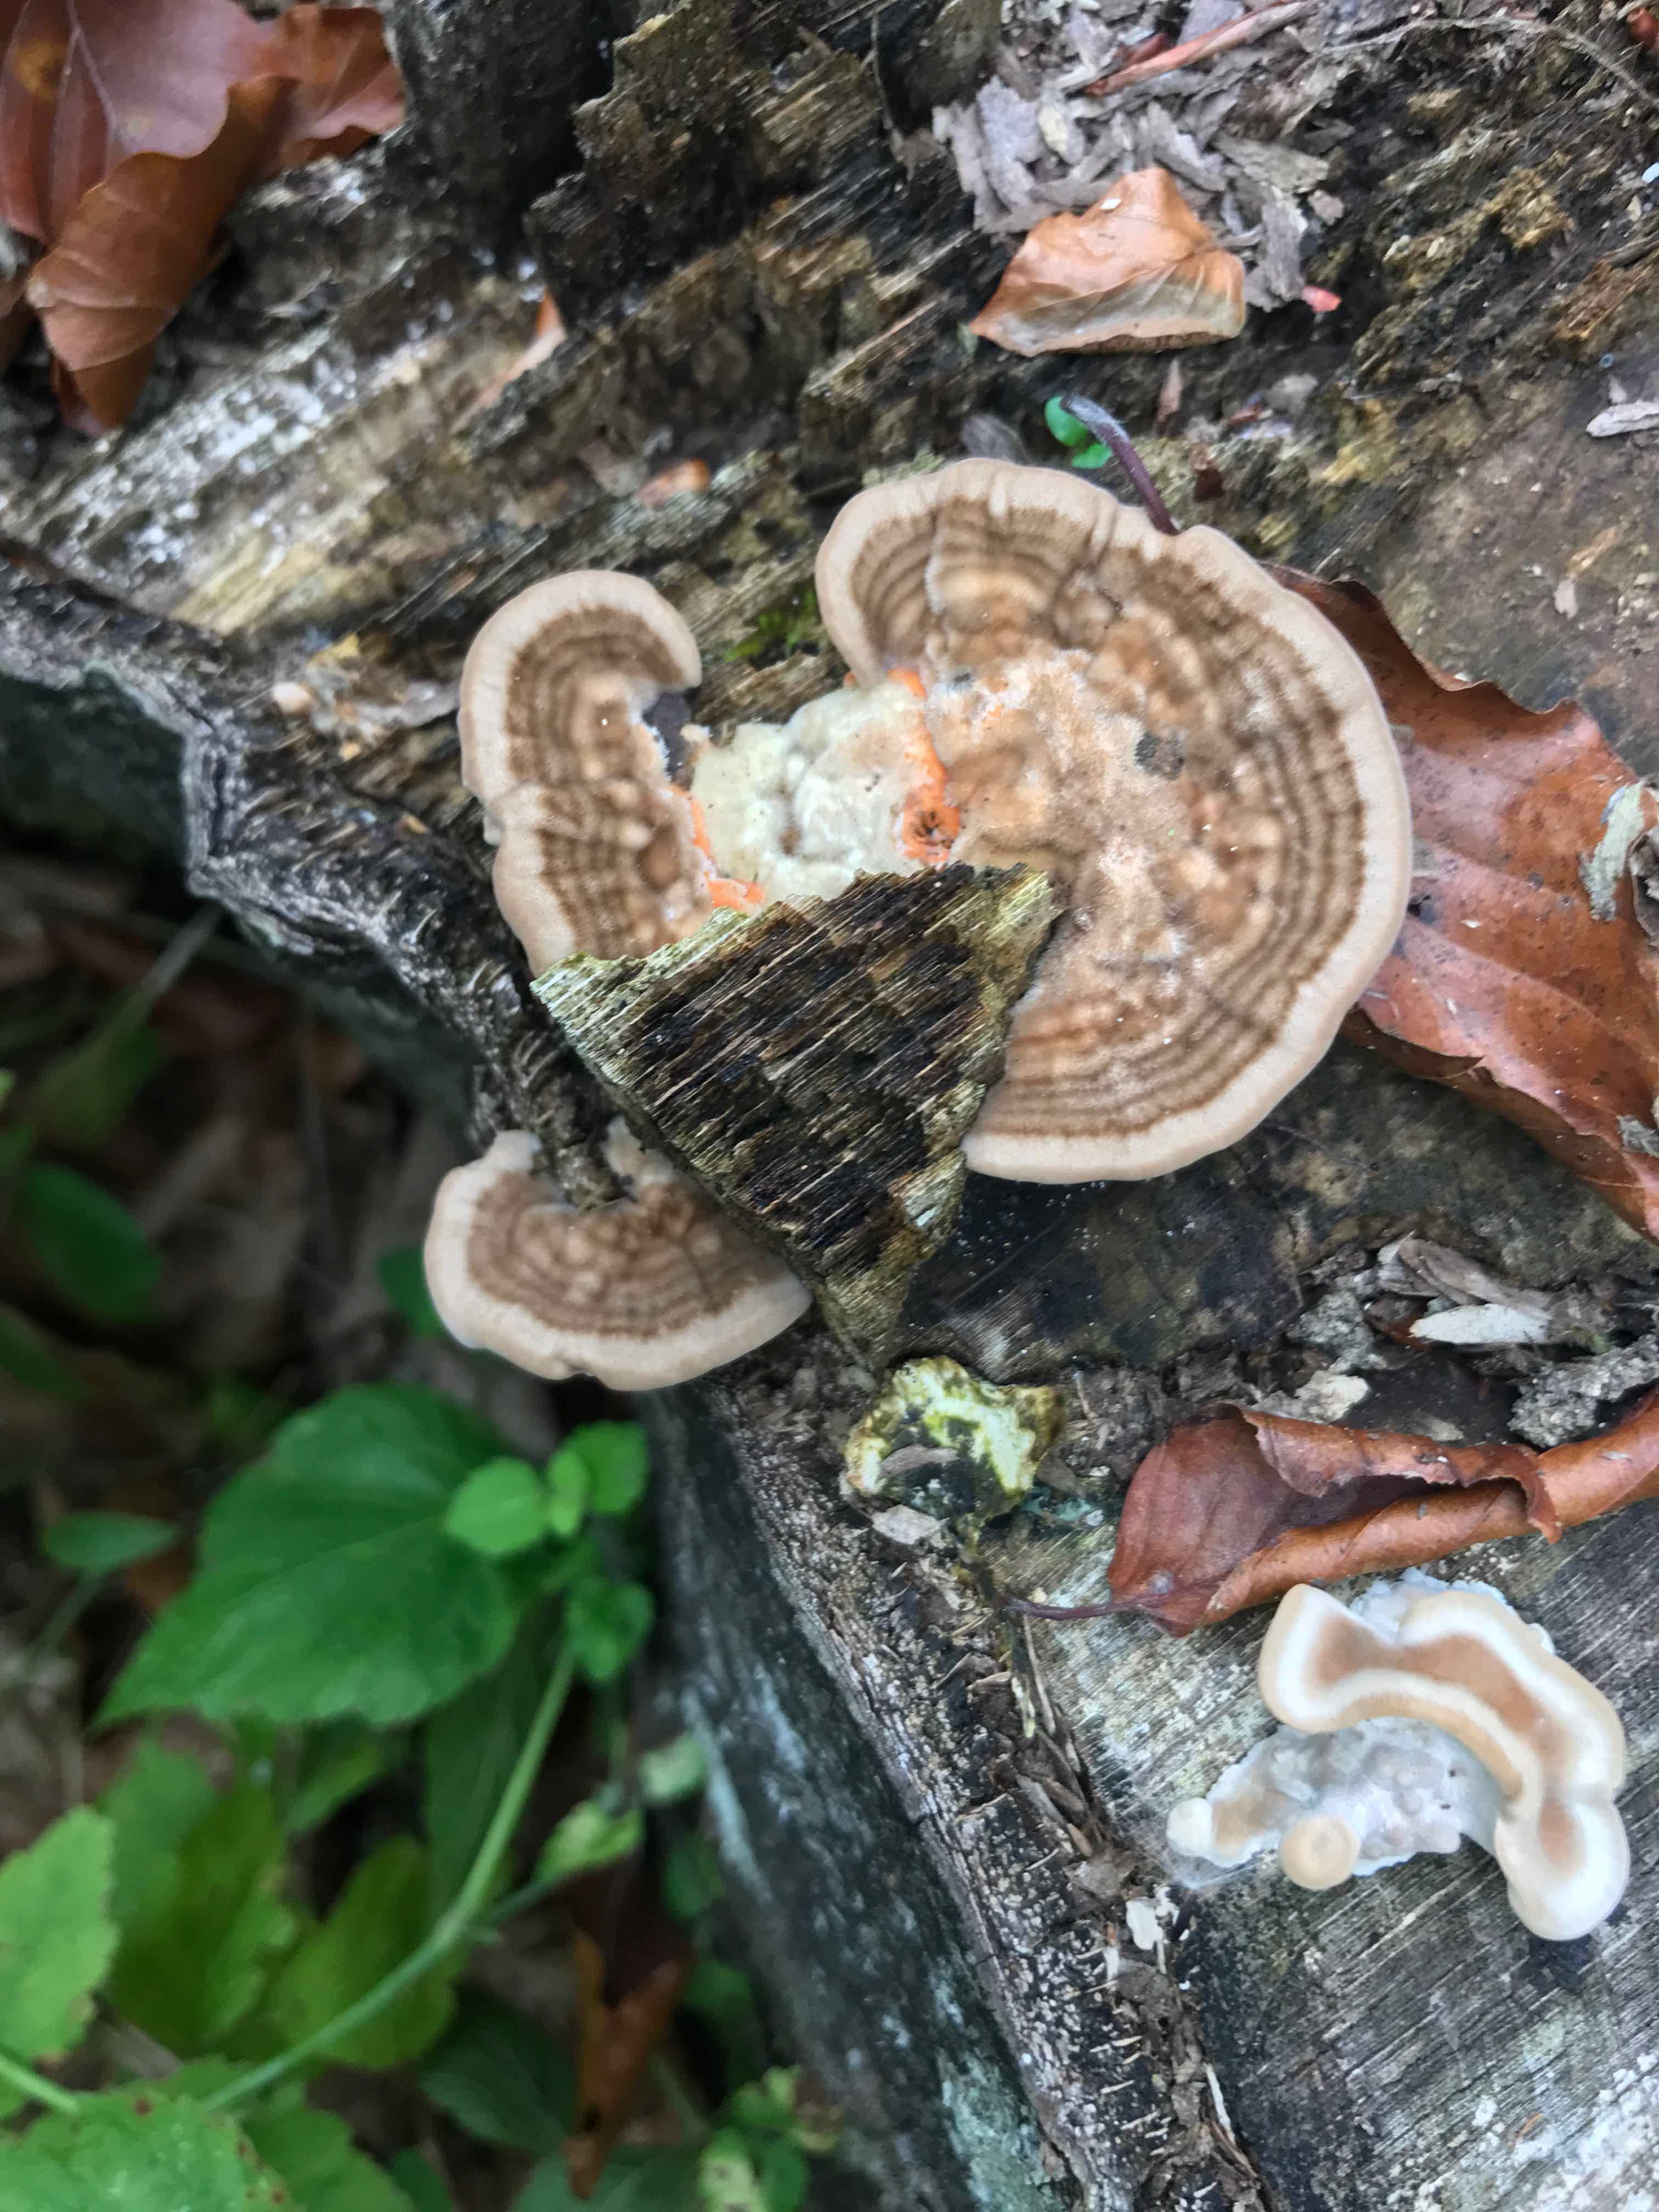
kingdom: Fungi
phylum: Basidiomycota
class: Agaricomycetes
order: Polyporales
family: Polyporaceae
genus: Lenzites
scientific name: Lenzites betulinus
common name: birke-læderporesvamp
